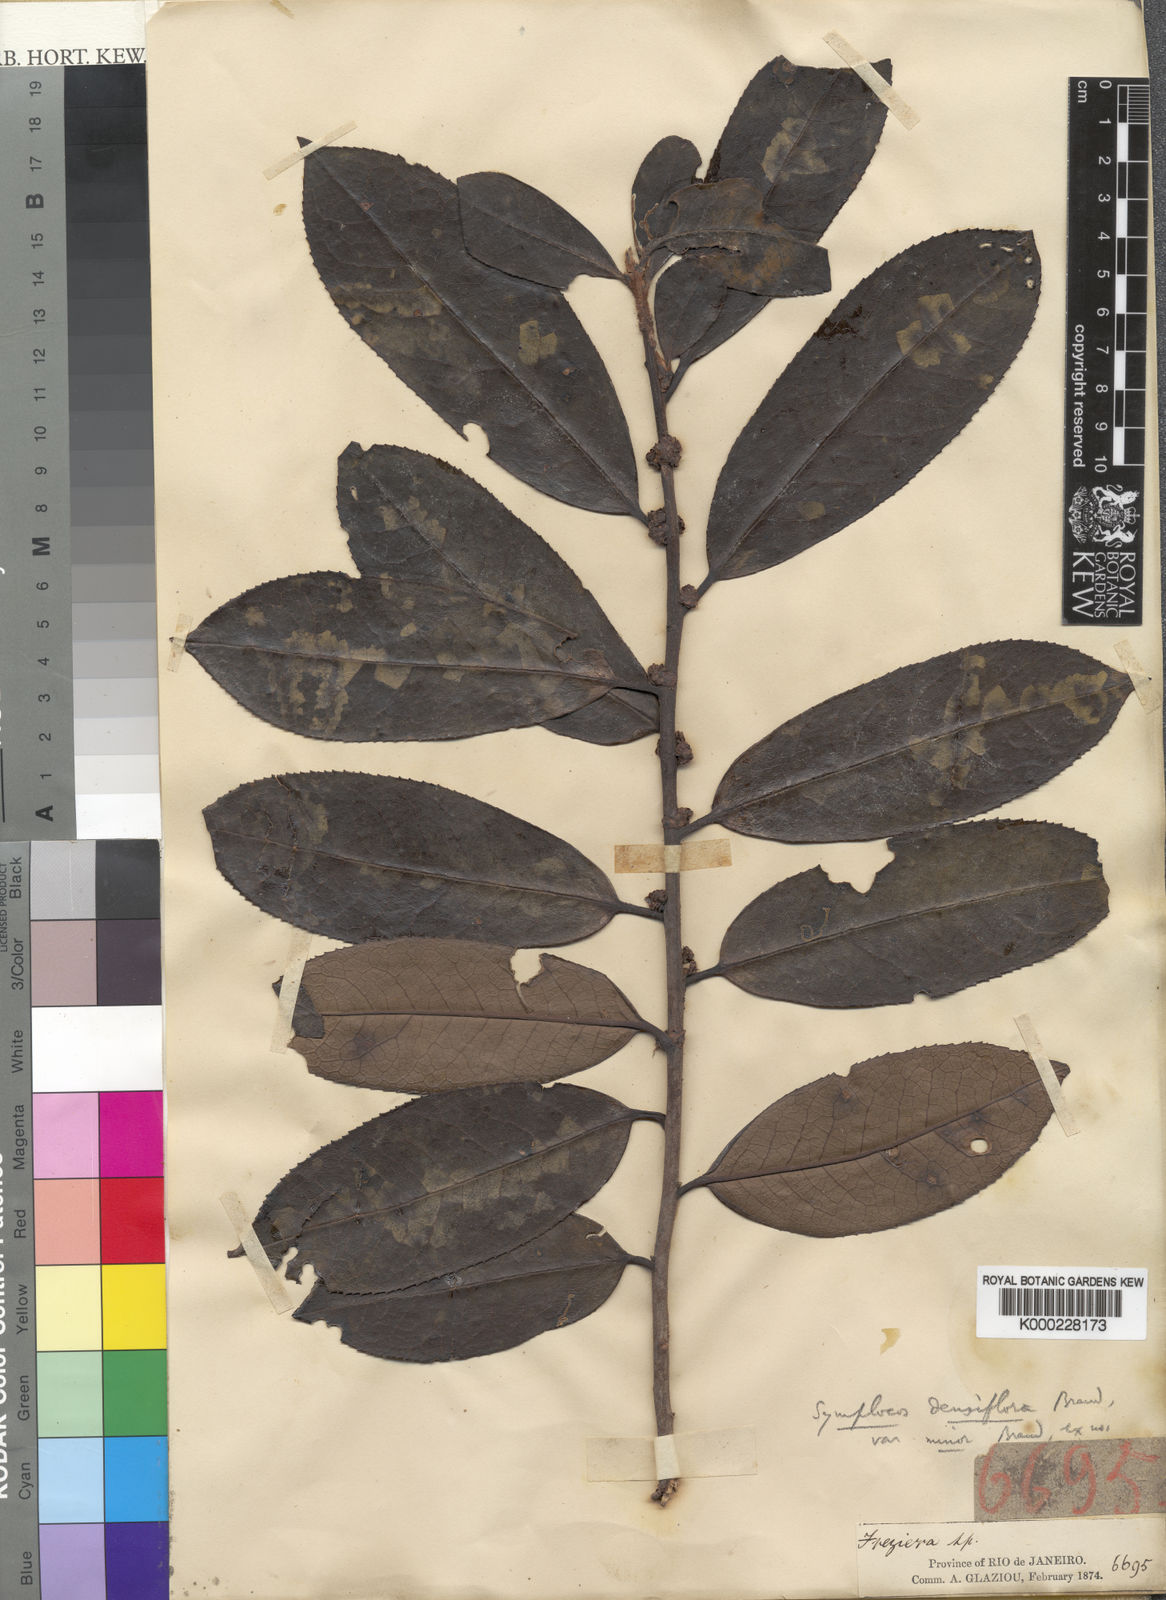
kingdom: Plantae
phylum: Tracheophyta
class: Magnoliopsida
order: Ericales
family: Symplocaceae
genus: Symplocos
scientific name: Symplocos falcata
